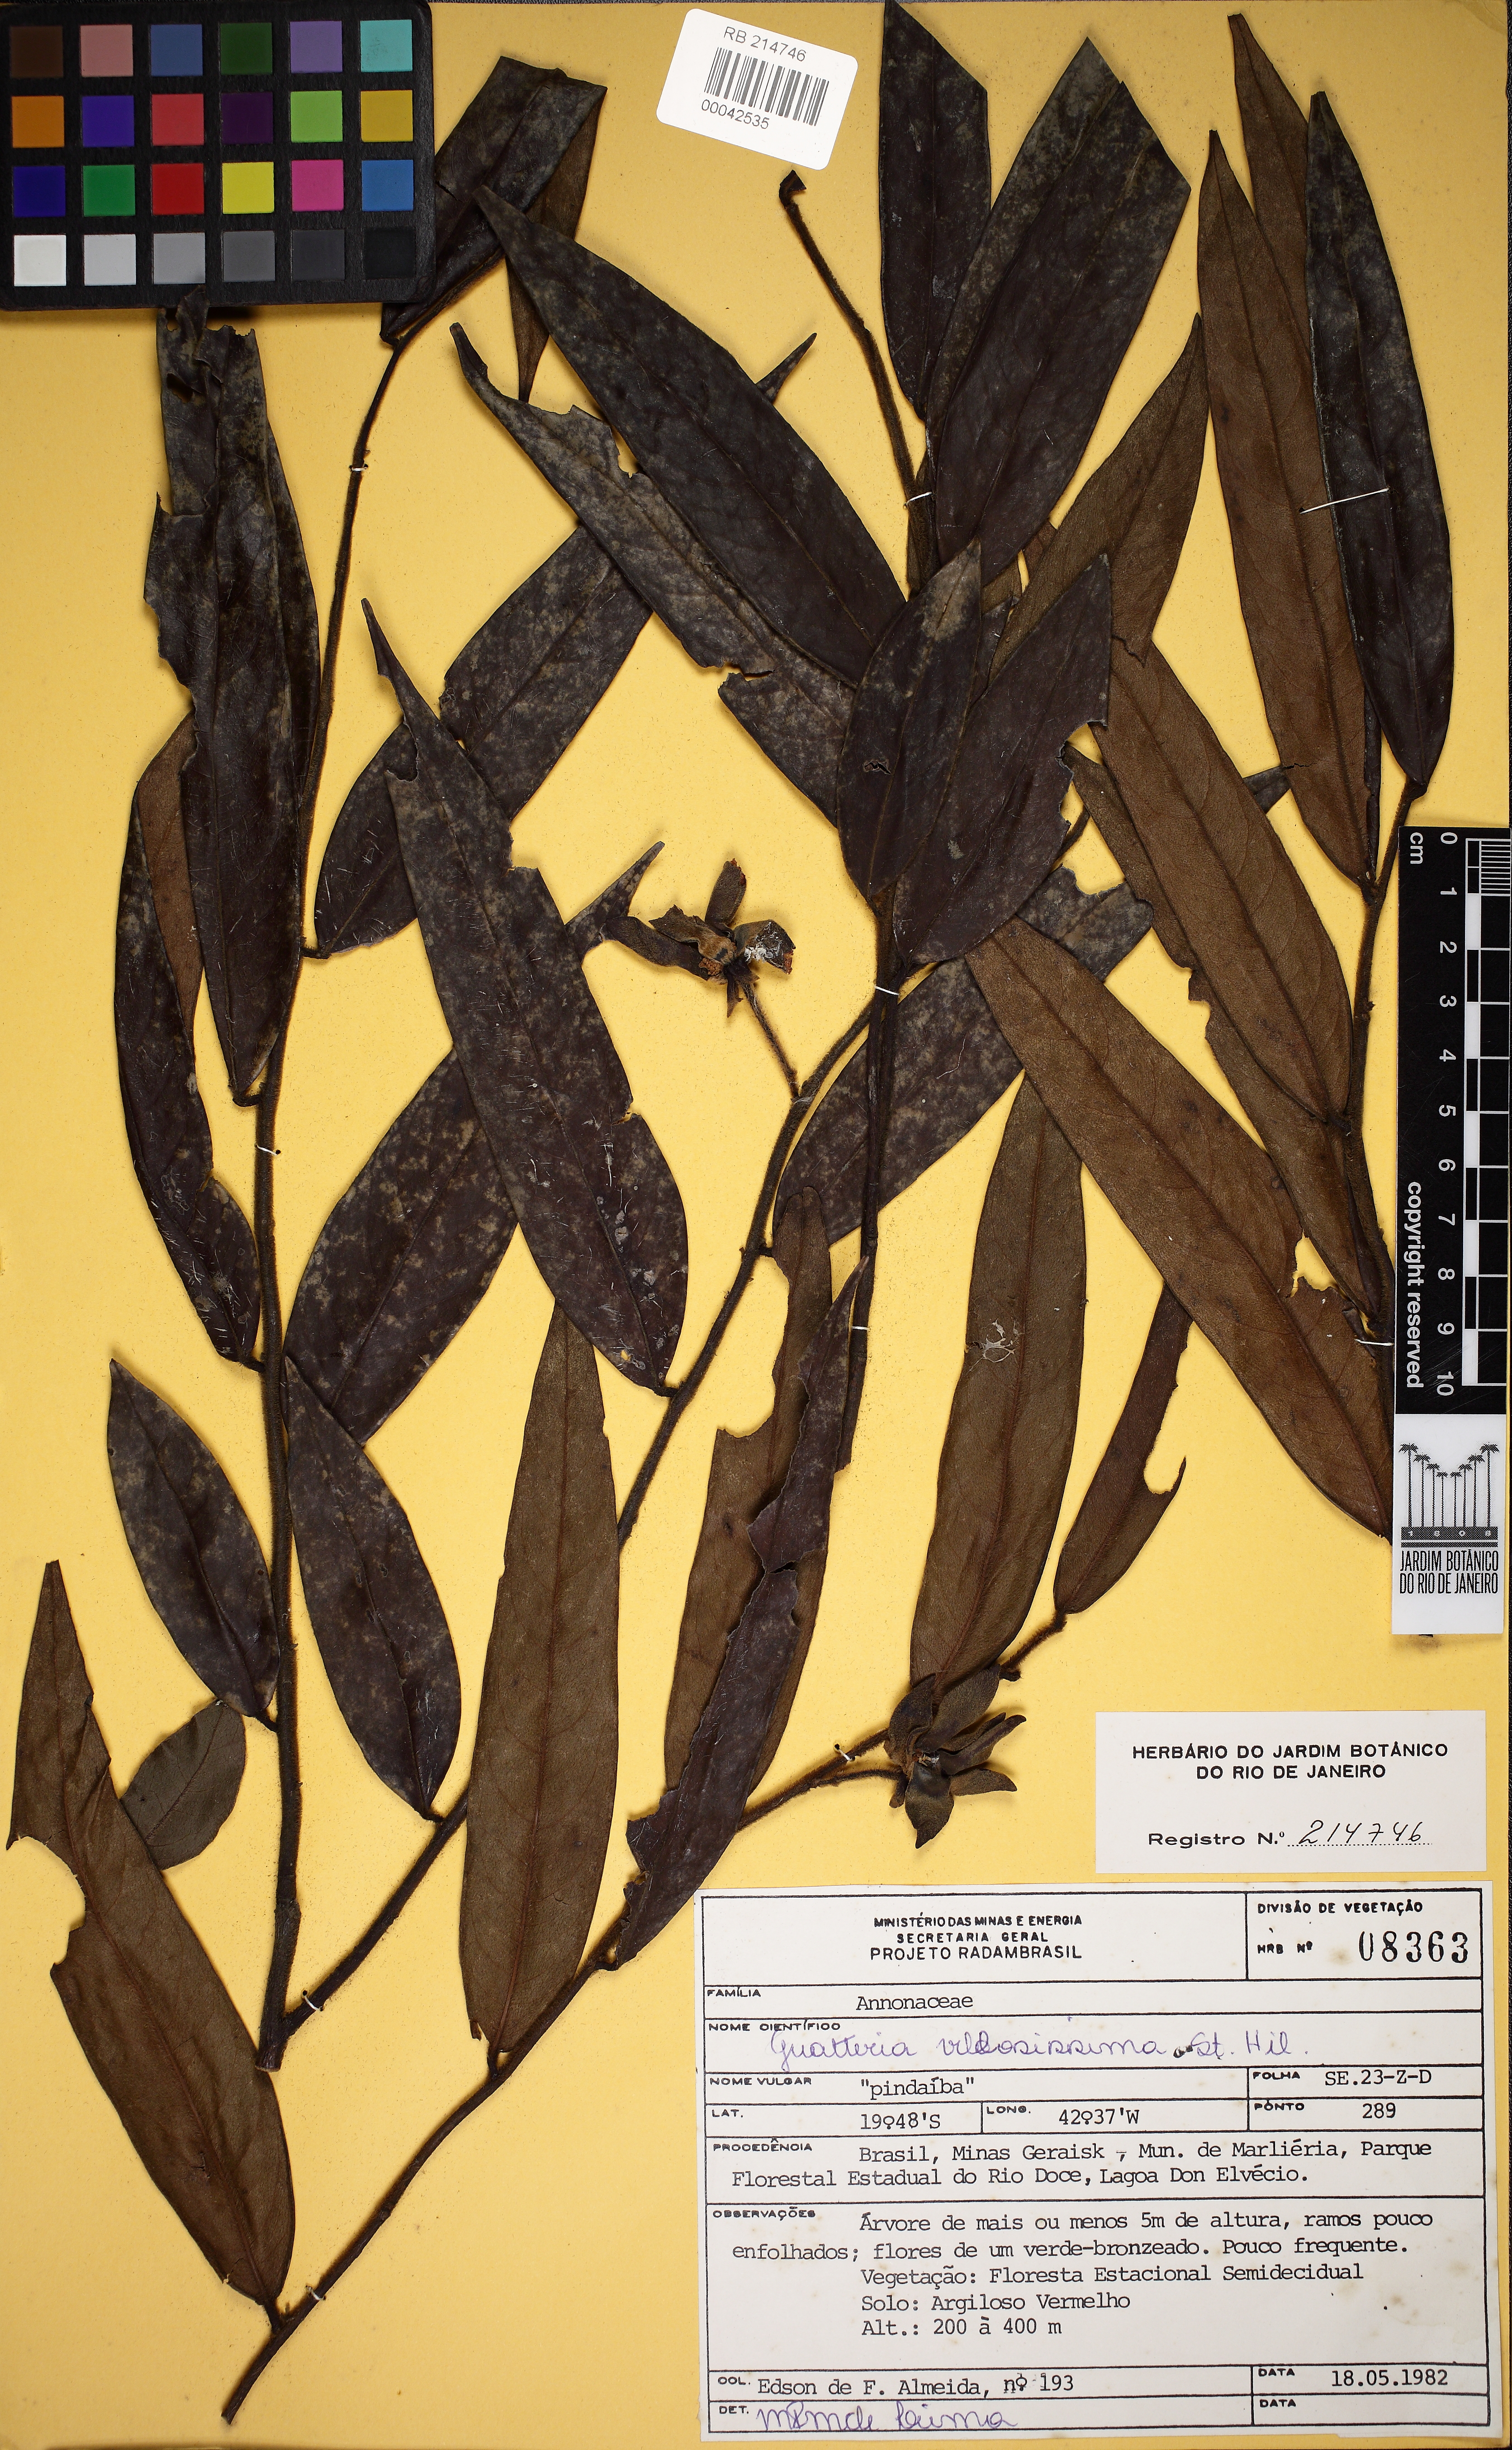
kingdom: Plantae
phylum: Tracheophyta
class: Magnoliopsida
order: Magnoliales
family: Annonaceae
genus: Guatteria
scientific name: Guatteria villosissima
